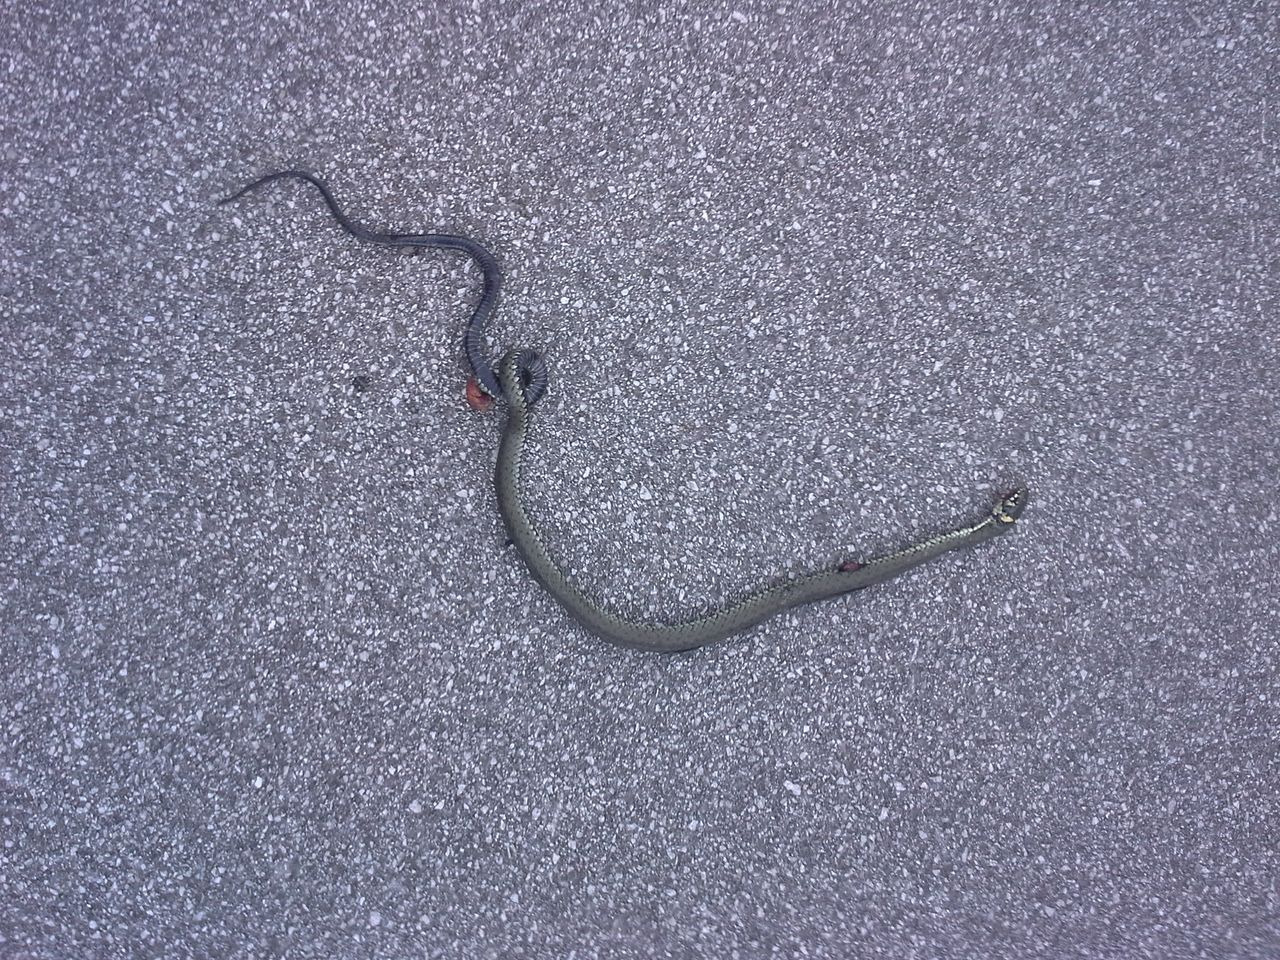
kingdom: Animalia
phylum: Chordata
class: Squamata
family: Colubridae
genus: Natrix
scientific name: Natrix natrix
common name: Grass snake
